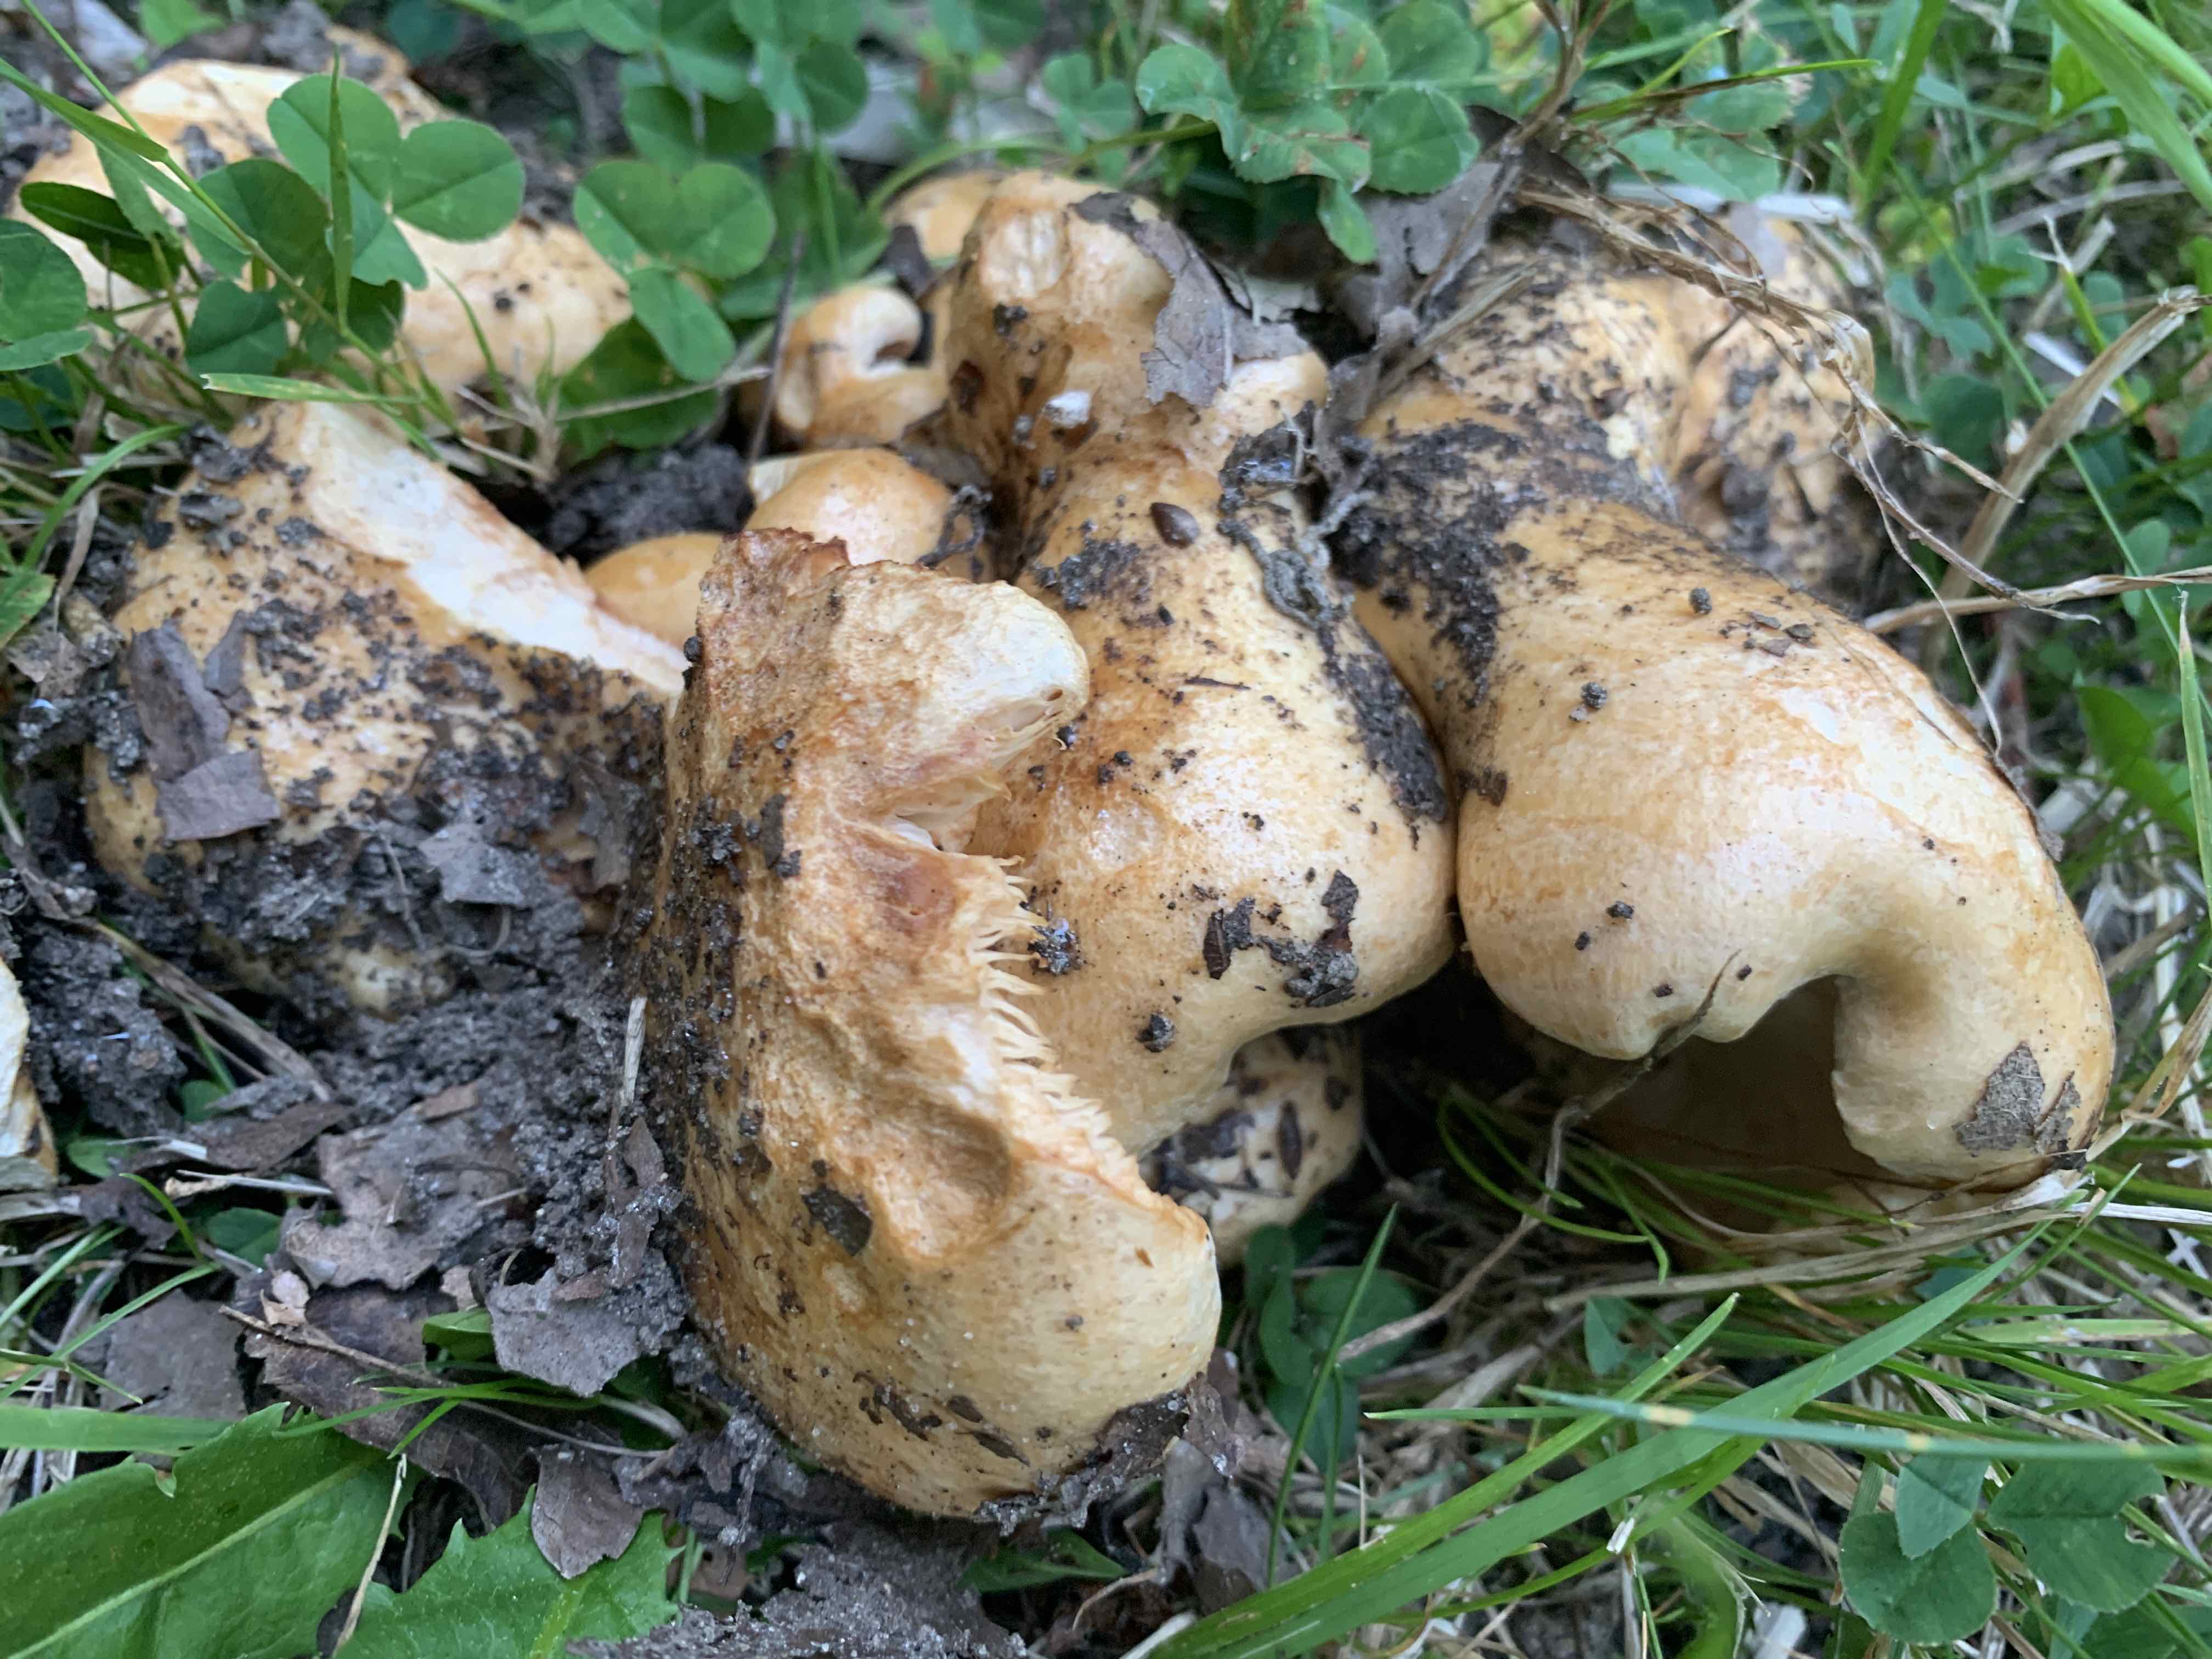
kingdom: Fungi
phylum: Basidiomycota
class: Agaricomycetes
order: Russulales
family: Russulaceae
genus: Lactarius
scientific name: Lactarius acerrimus
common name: brændende mælkehat
